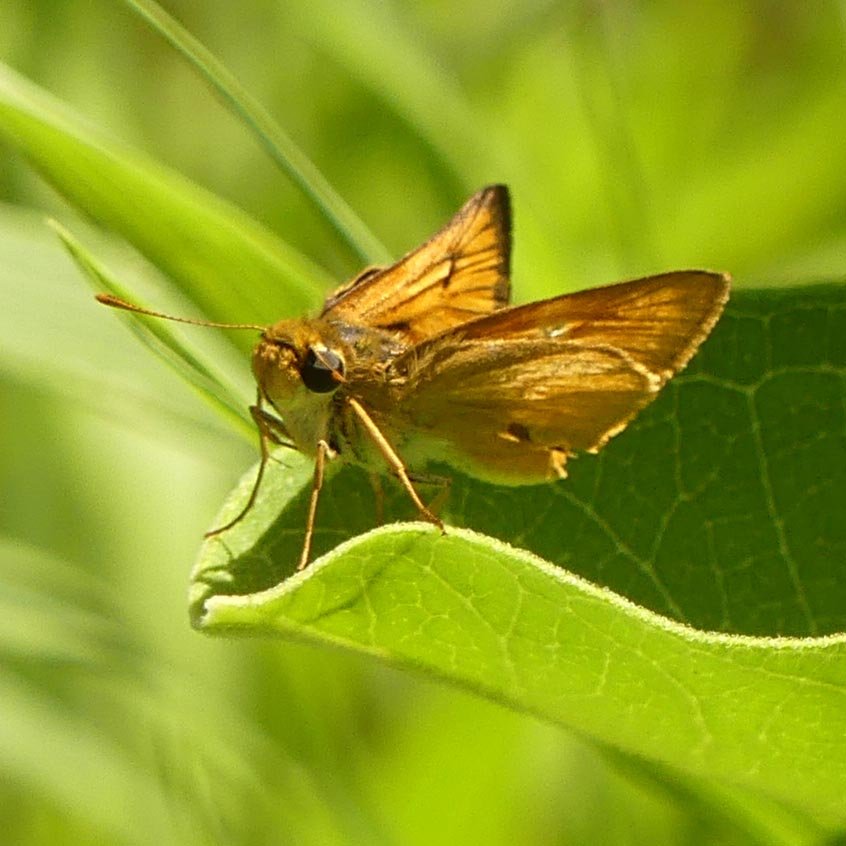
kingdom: Animalia
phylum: Arthropoda
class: Insecta
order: Lepidoptera
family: Hesperiidae
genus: Atrytone
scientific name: Atrytone delaware
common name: Delaware Skipper
